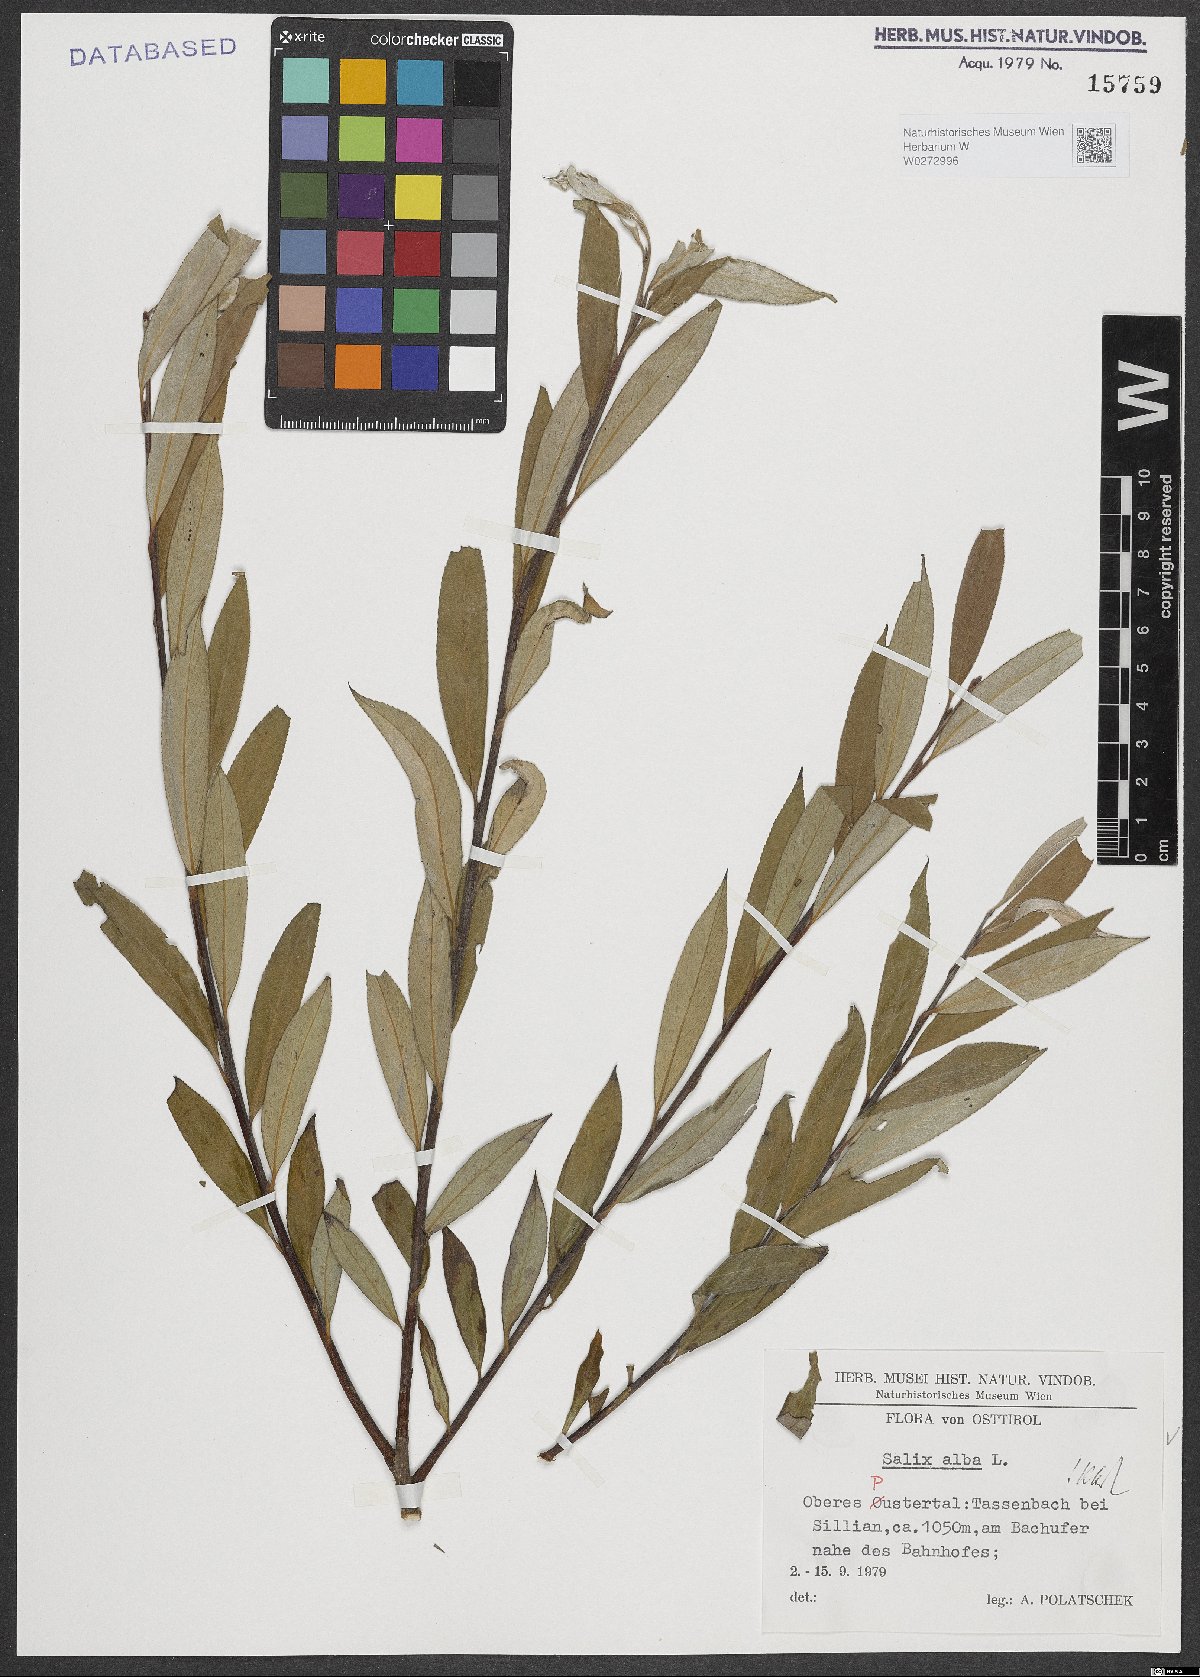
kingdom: Plantae
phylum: Tracheophyta
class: Magnoliopsida
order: Malpighiales
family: Salicaceae
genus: Salix
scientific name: Salix alba
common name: White willow
